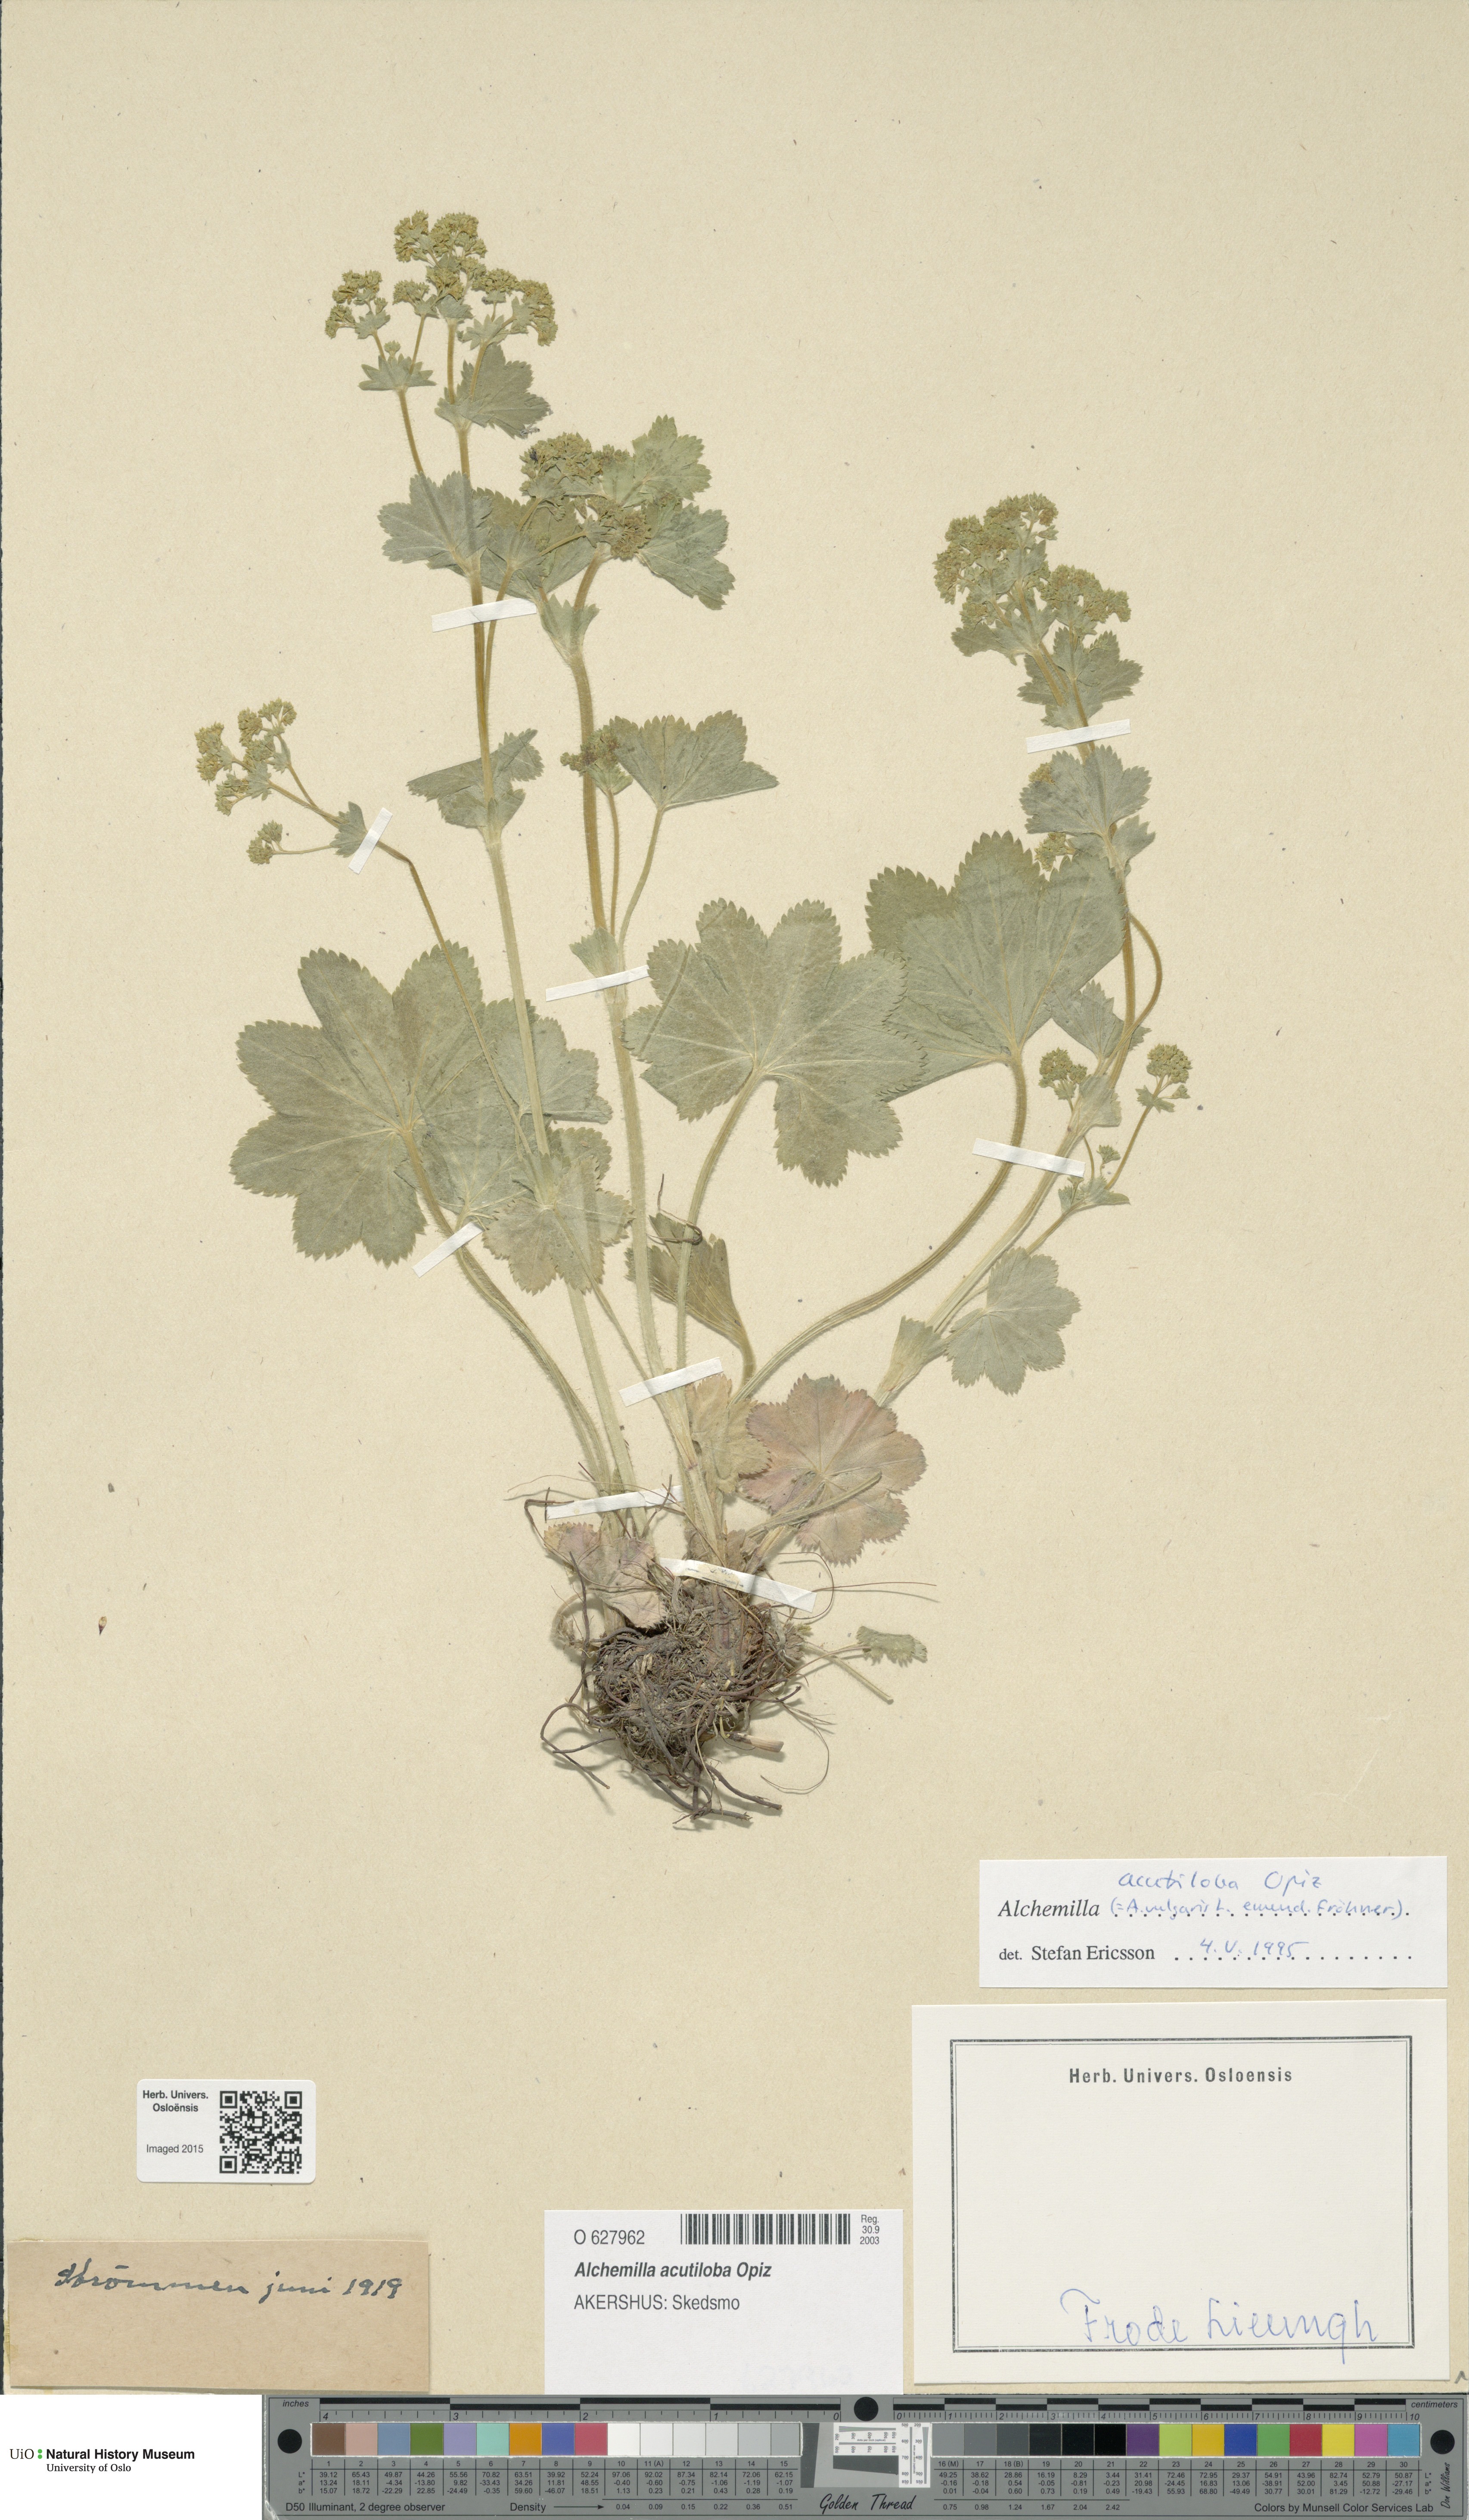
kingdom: Plantae
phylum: Tracheophyta
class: Magnoliopsida
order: Rosales
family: Rosaceae
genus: Alchemilla
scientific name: Alchemilla vulgaris
